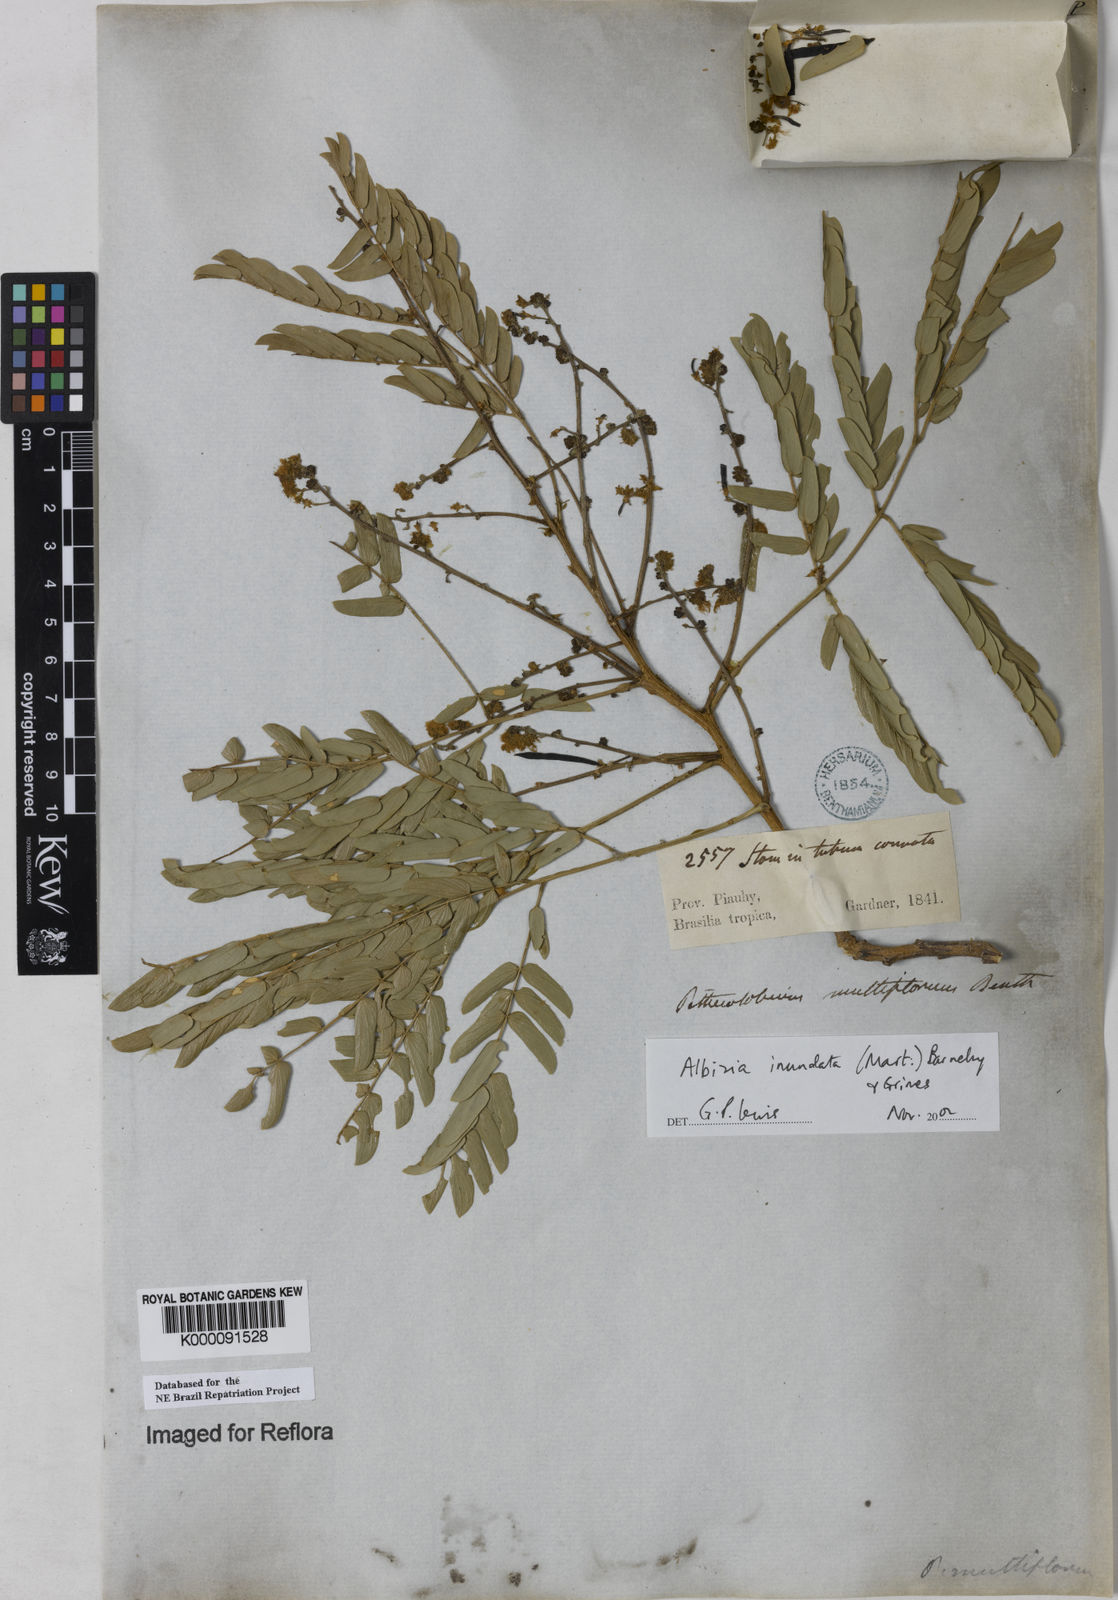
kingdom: Plantae
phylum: Tracheophyta
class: Magnoliopsida
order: Fabales
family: Fabaceae
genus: Albizia
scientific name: Albizia inundata
